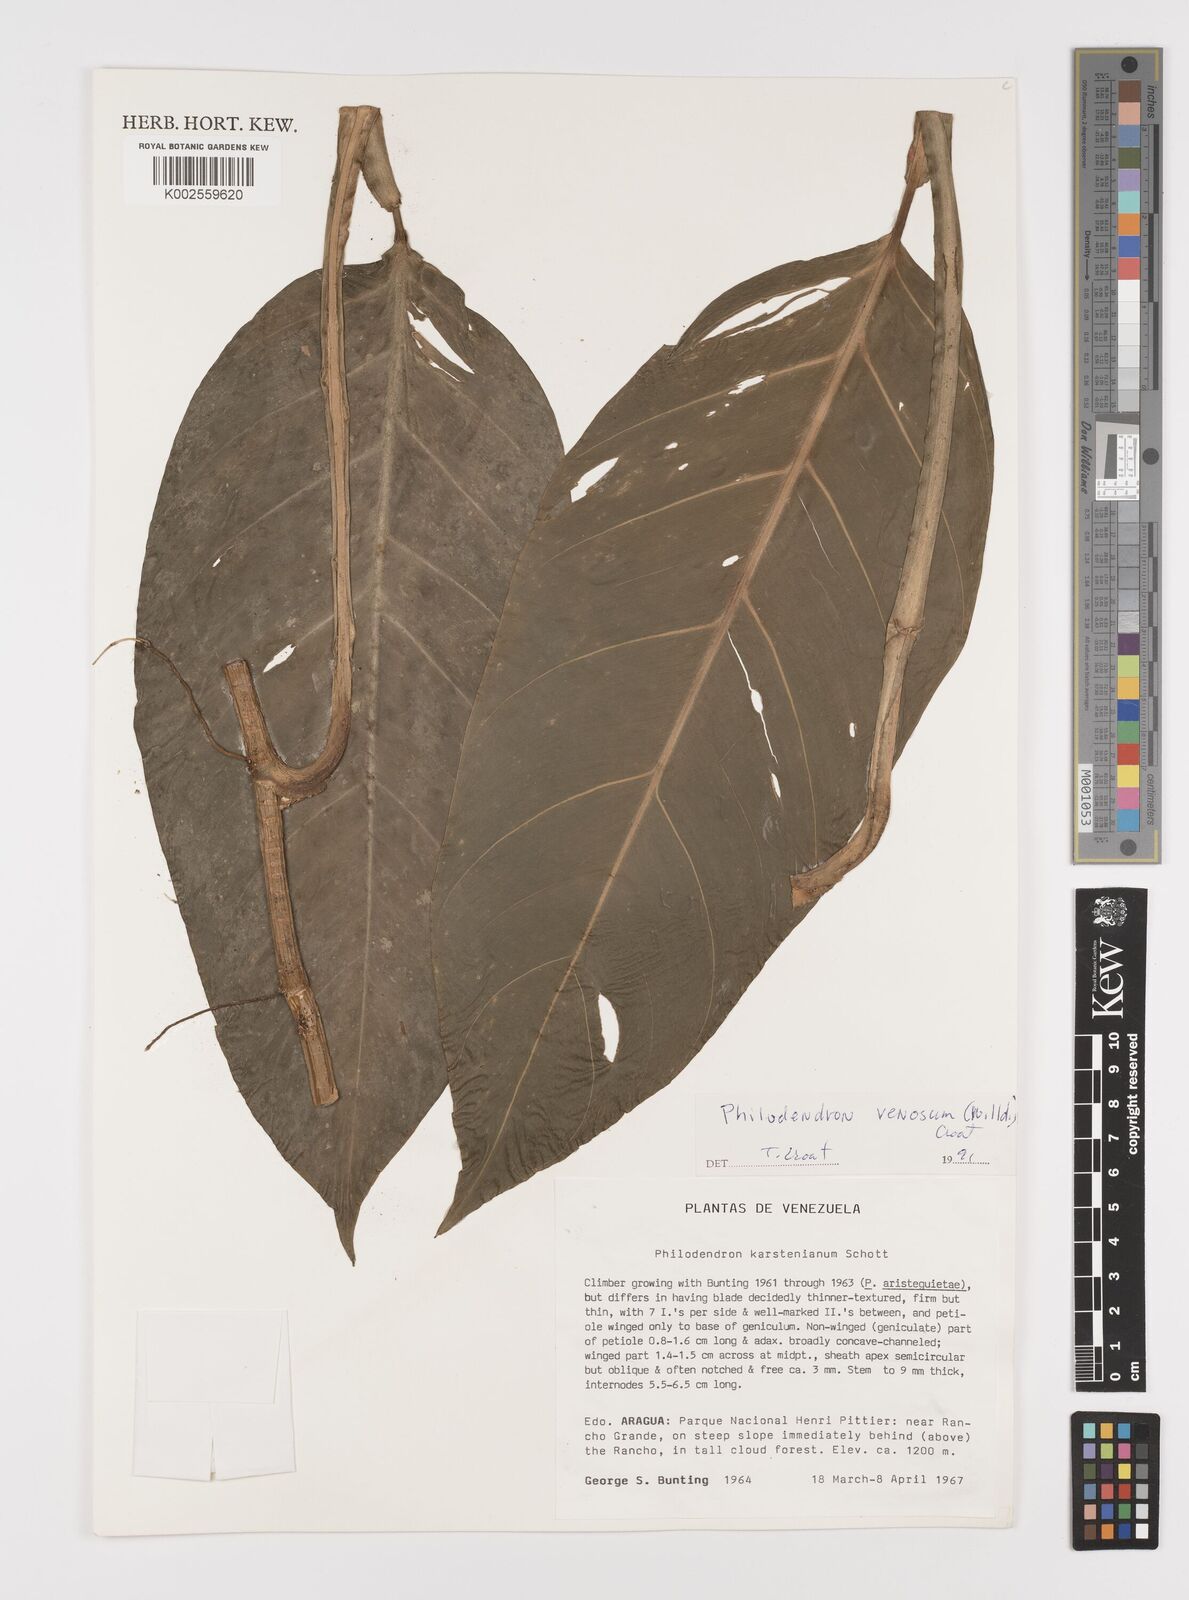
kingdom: Plantae
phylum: Tracheophyta
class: Liliopsida
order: Alismatales
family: Araceae
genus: Philodendron
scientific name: Philodendron venosum
